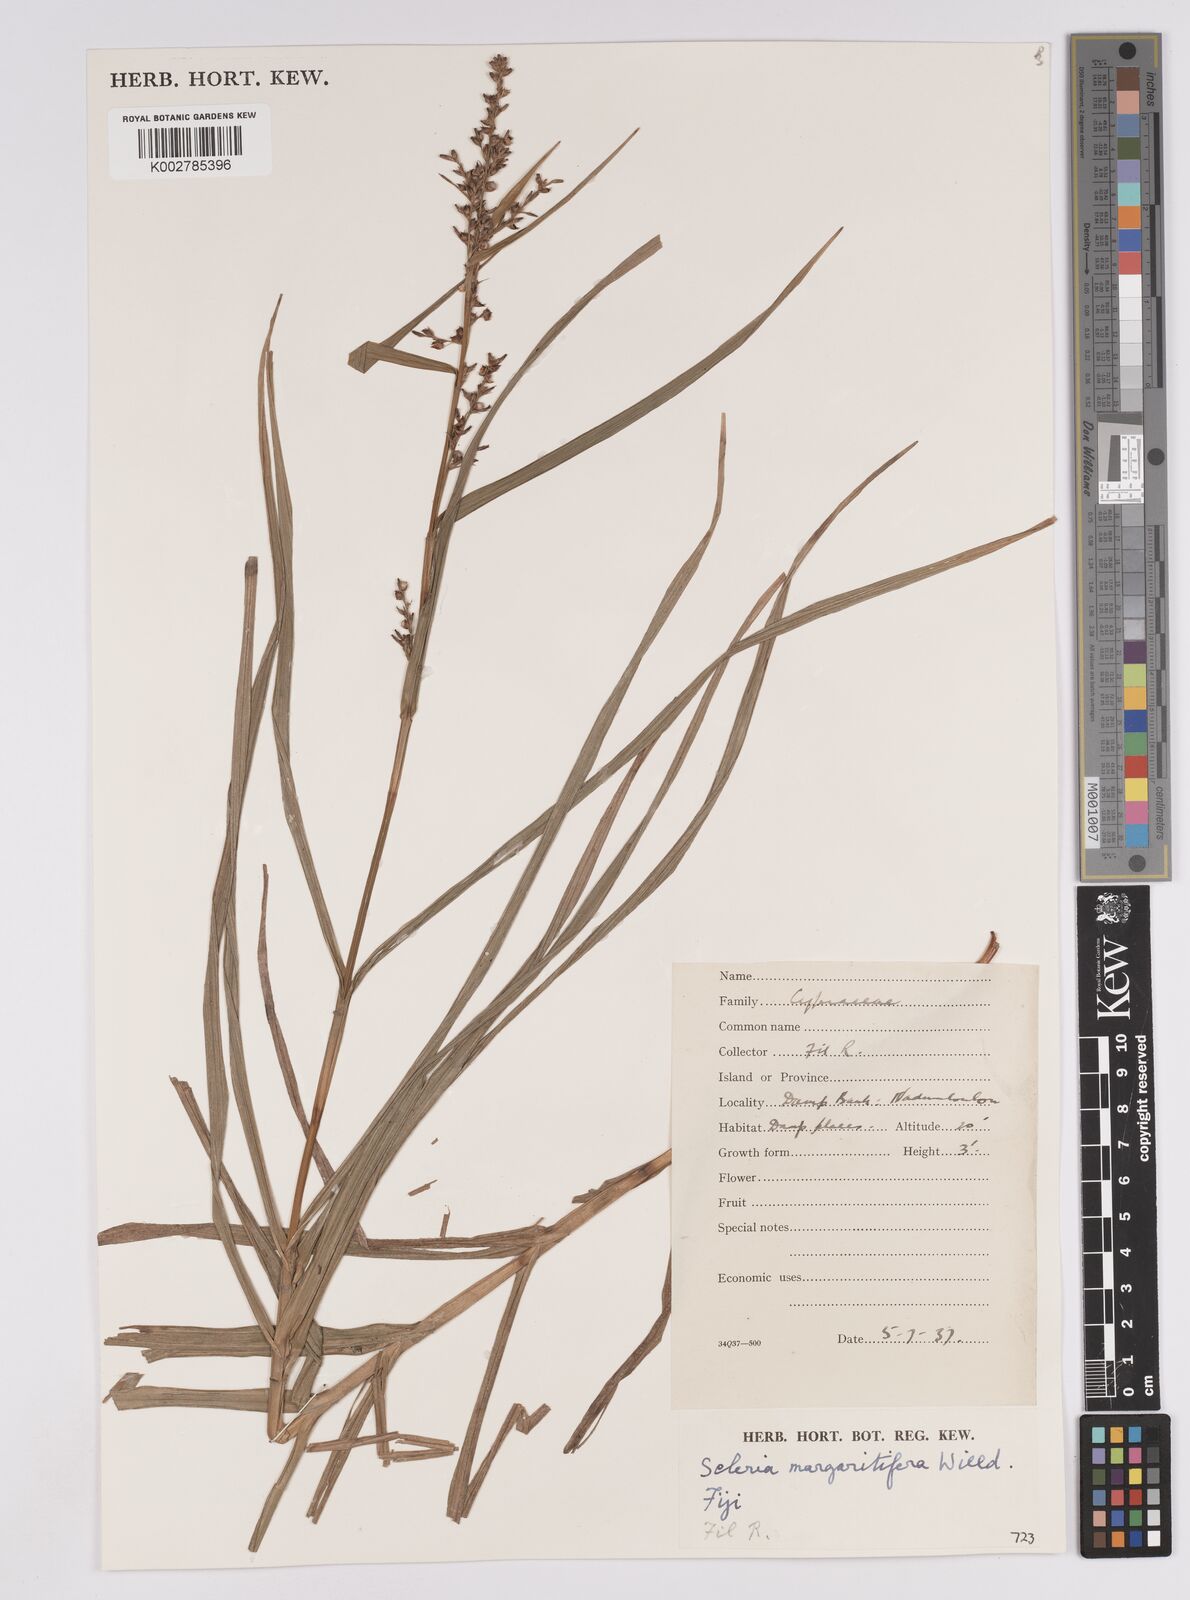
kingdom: Plantae
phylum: Tracheophyta
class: Liliopsida
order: Poales
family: Cyperaceae
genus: Scleria
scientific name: Scleria polycarpa
